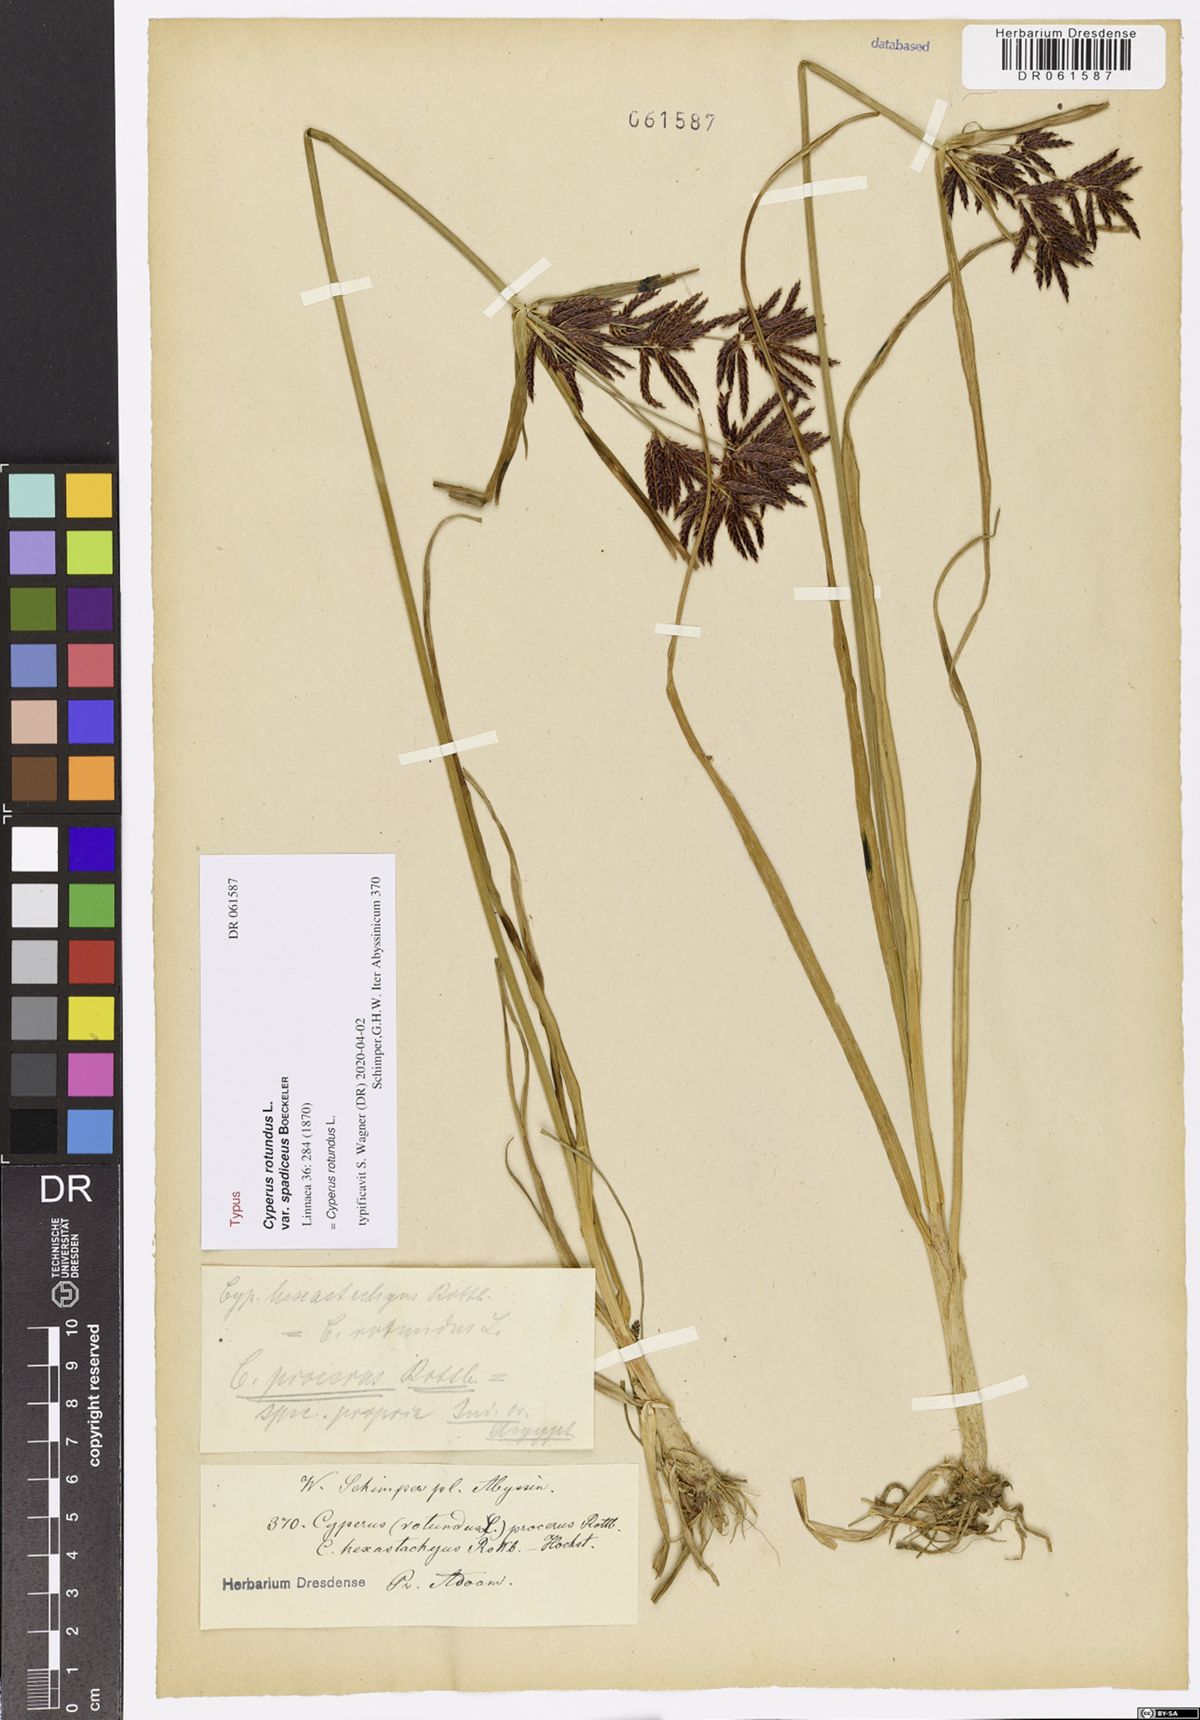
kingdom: Plantae
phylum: Tracheophyta
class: Liliopsida
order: Poales
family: Cyperaceae
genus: Cyperus
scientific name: Cyperus rotundus
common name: Nutgrass
